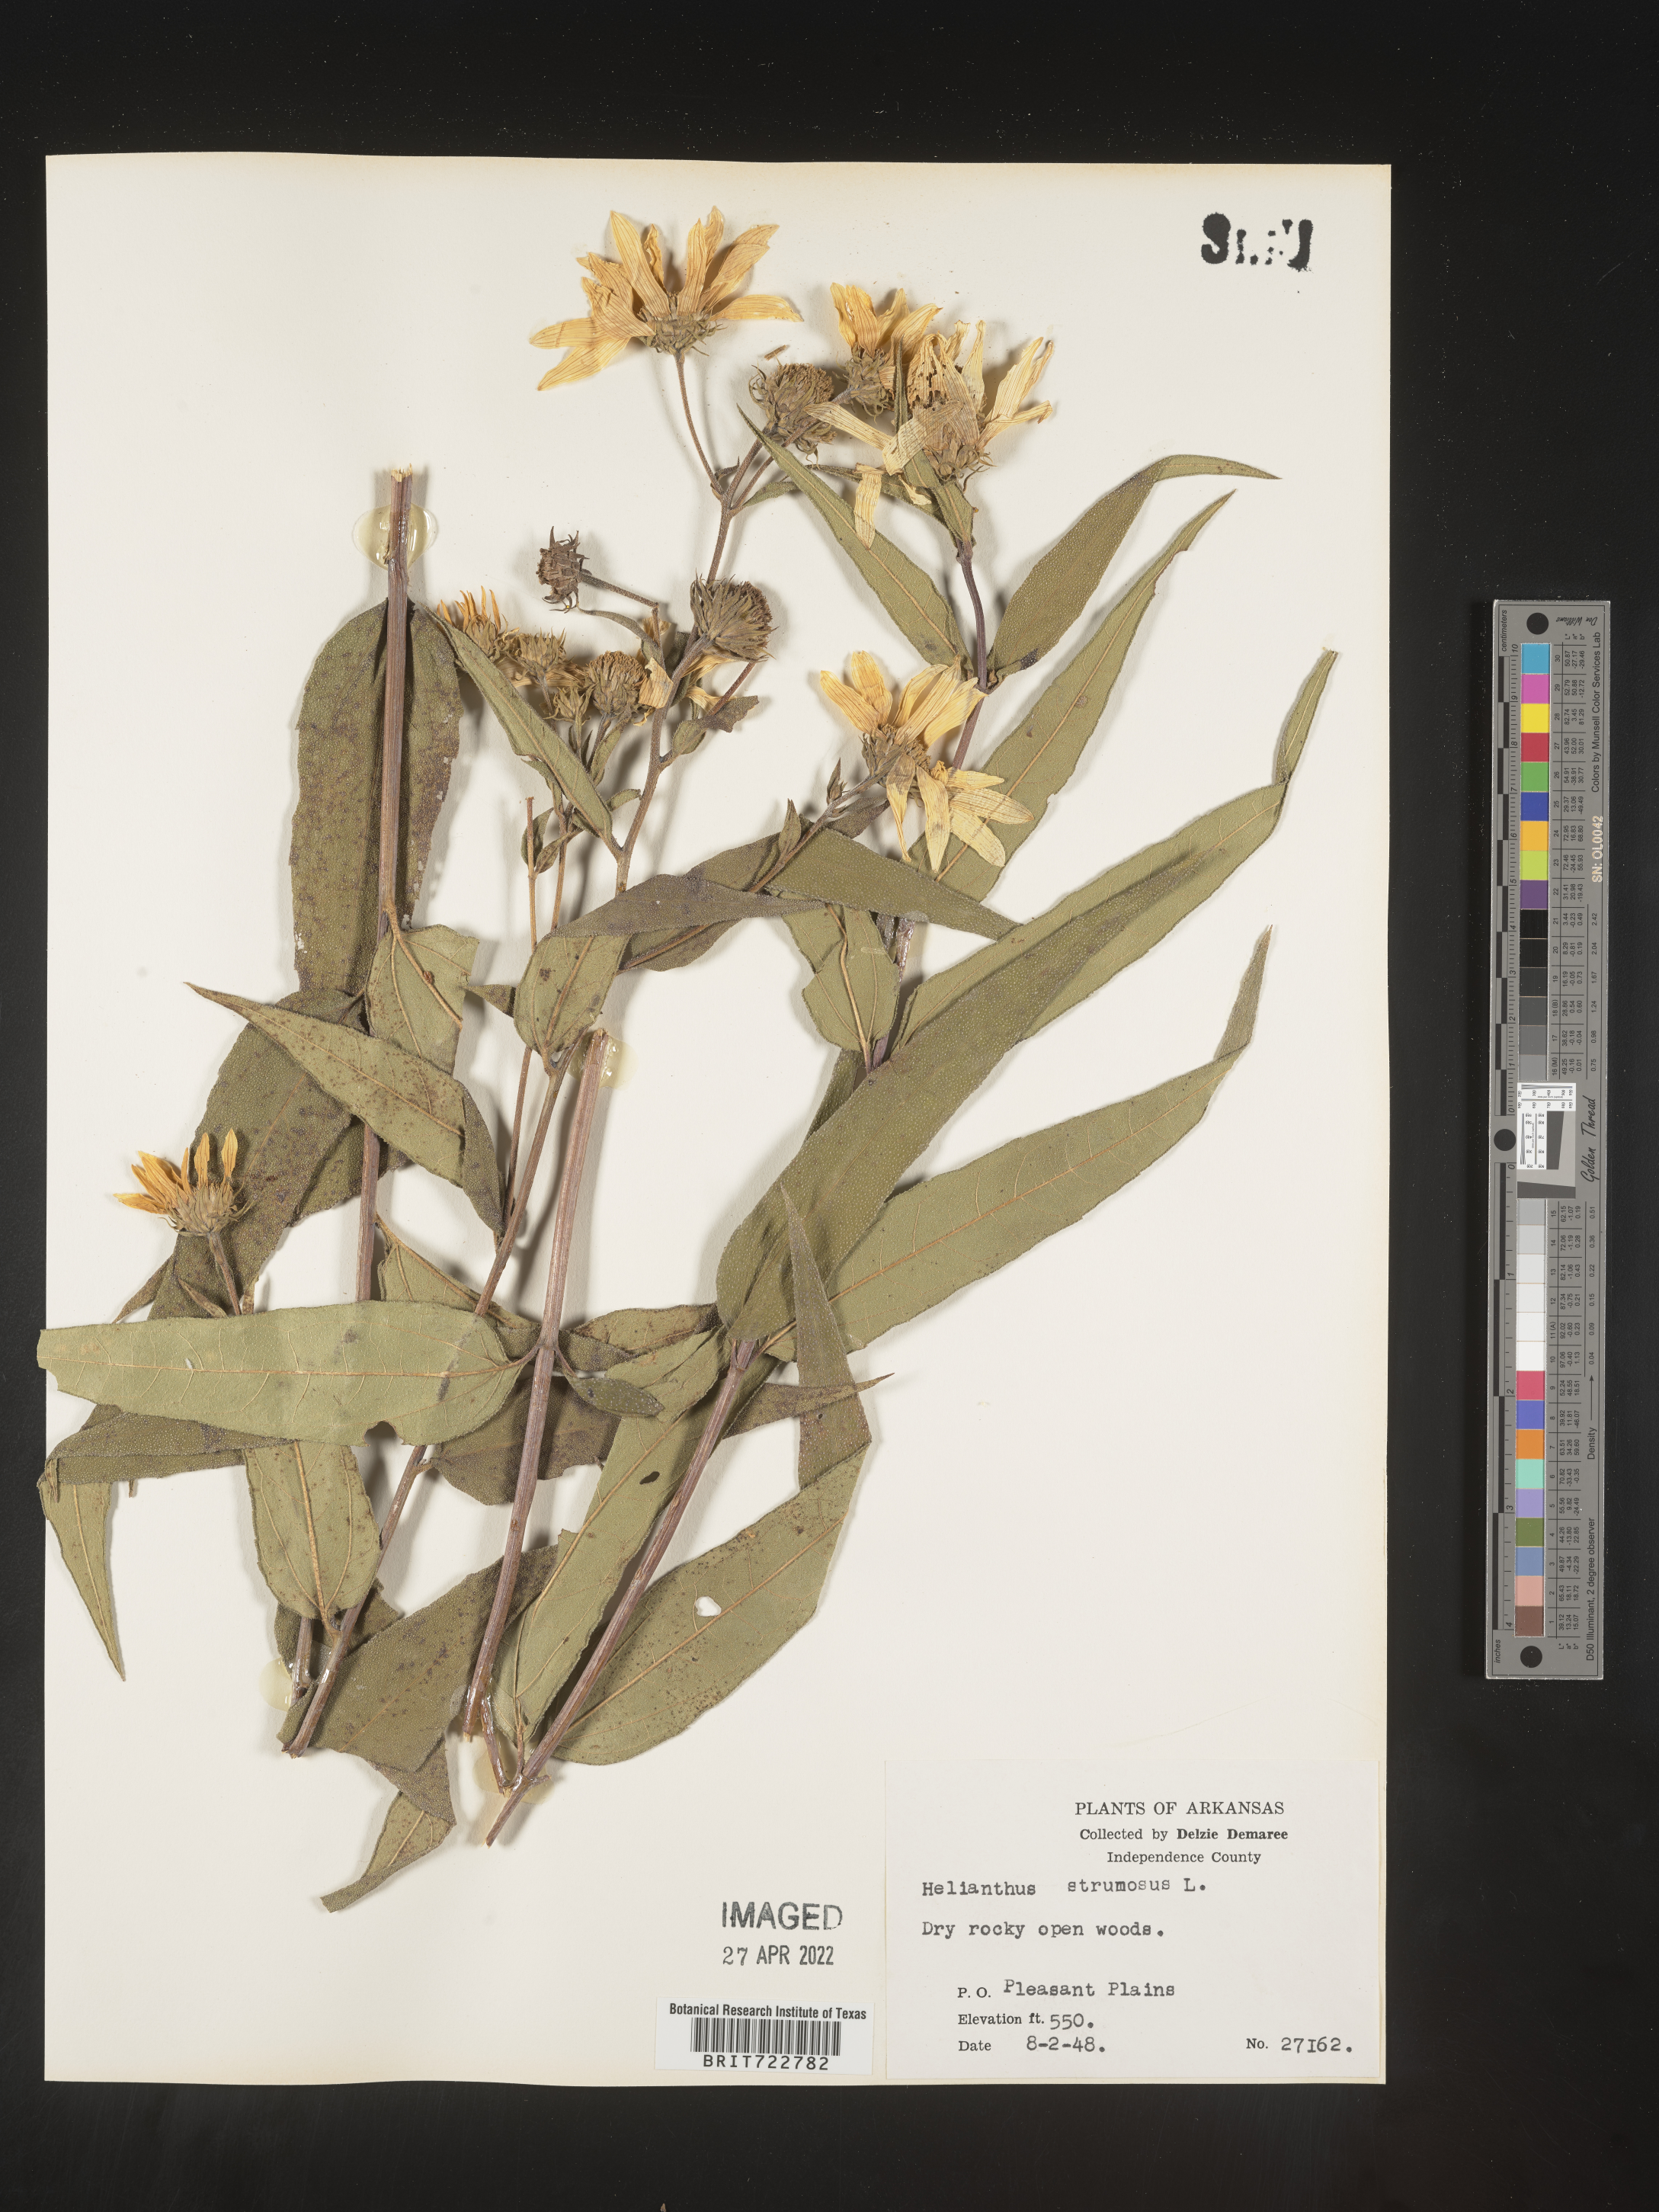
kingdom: Plantae
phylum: Tracheophyta
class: Magnoliopsida
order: Asterales
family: Asteraceae
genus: Helianthus
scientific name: Helianthus strumosus
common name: Pale-leaved sunflower
